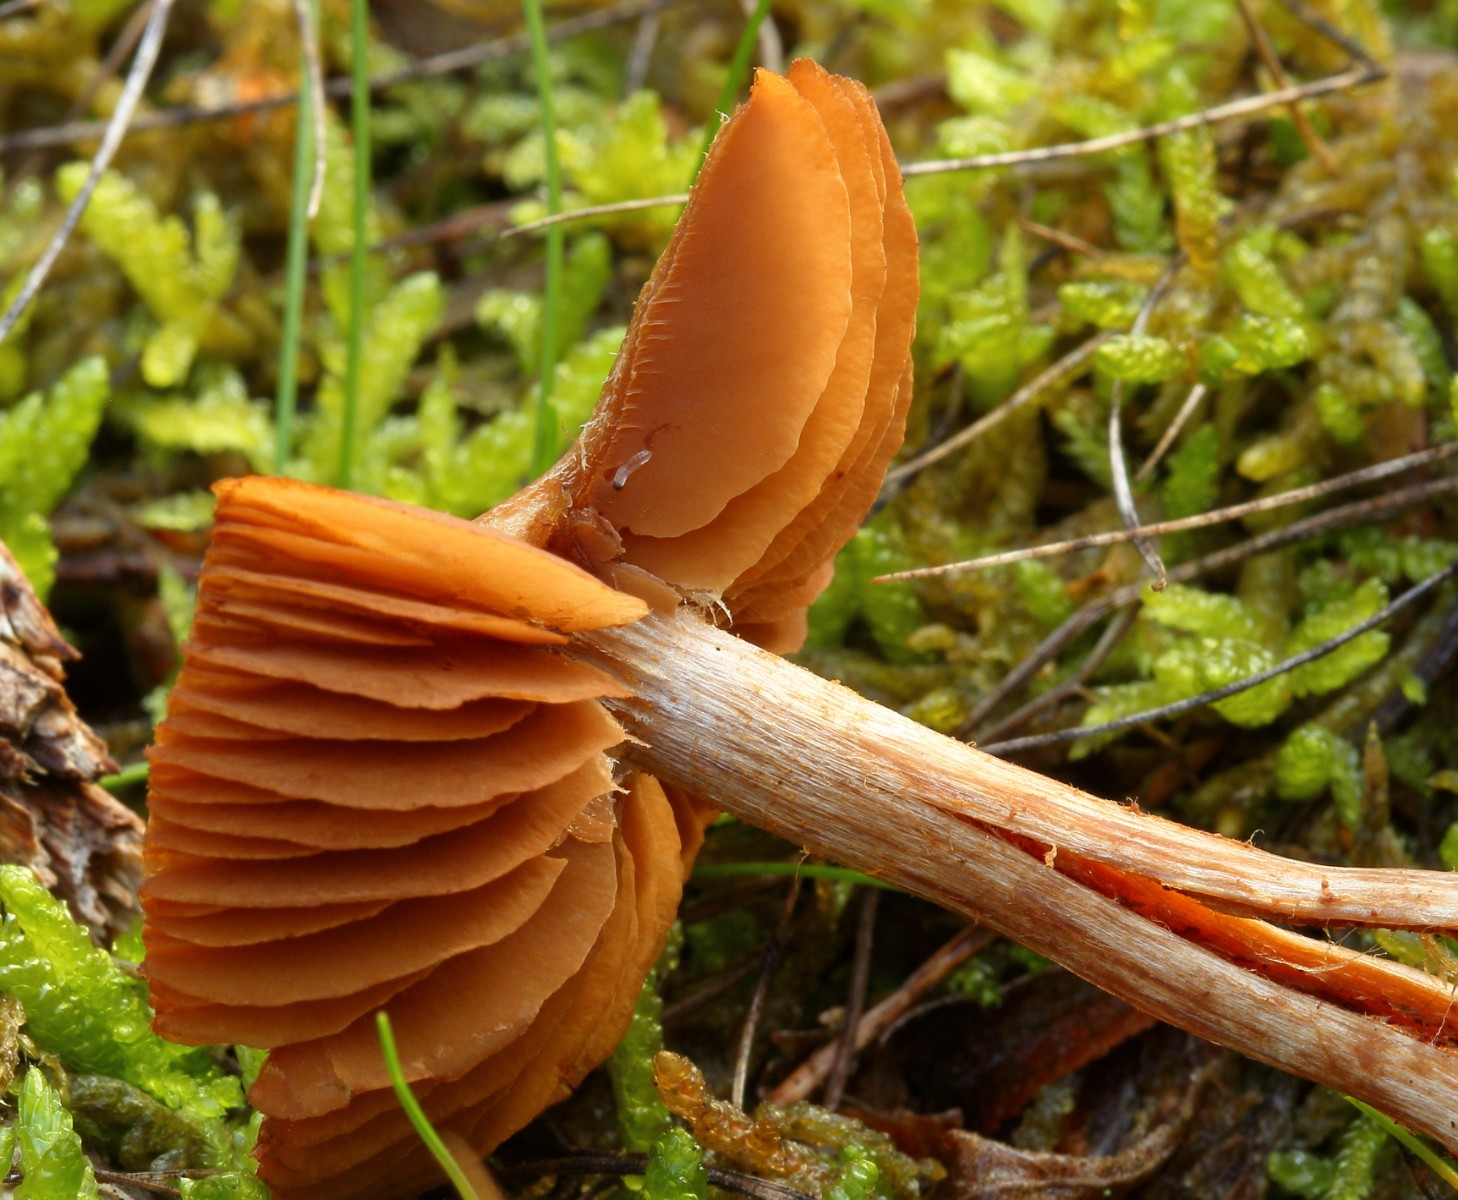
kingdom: Fungi
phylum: Basidiomycota
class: Agaricomycetes
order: Agaricales
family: Cortinariaceae
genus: Cortinarius
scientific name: Cortinarius
